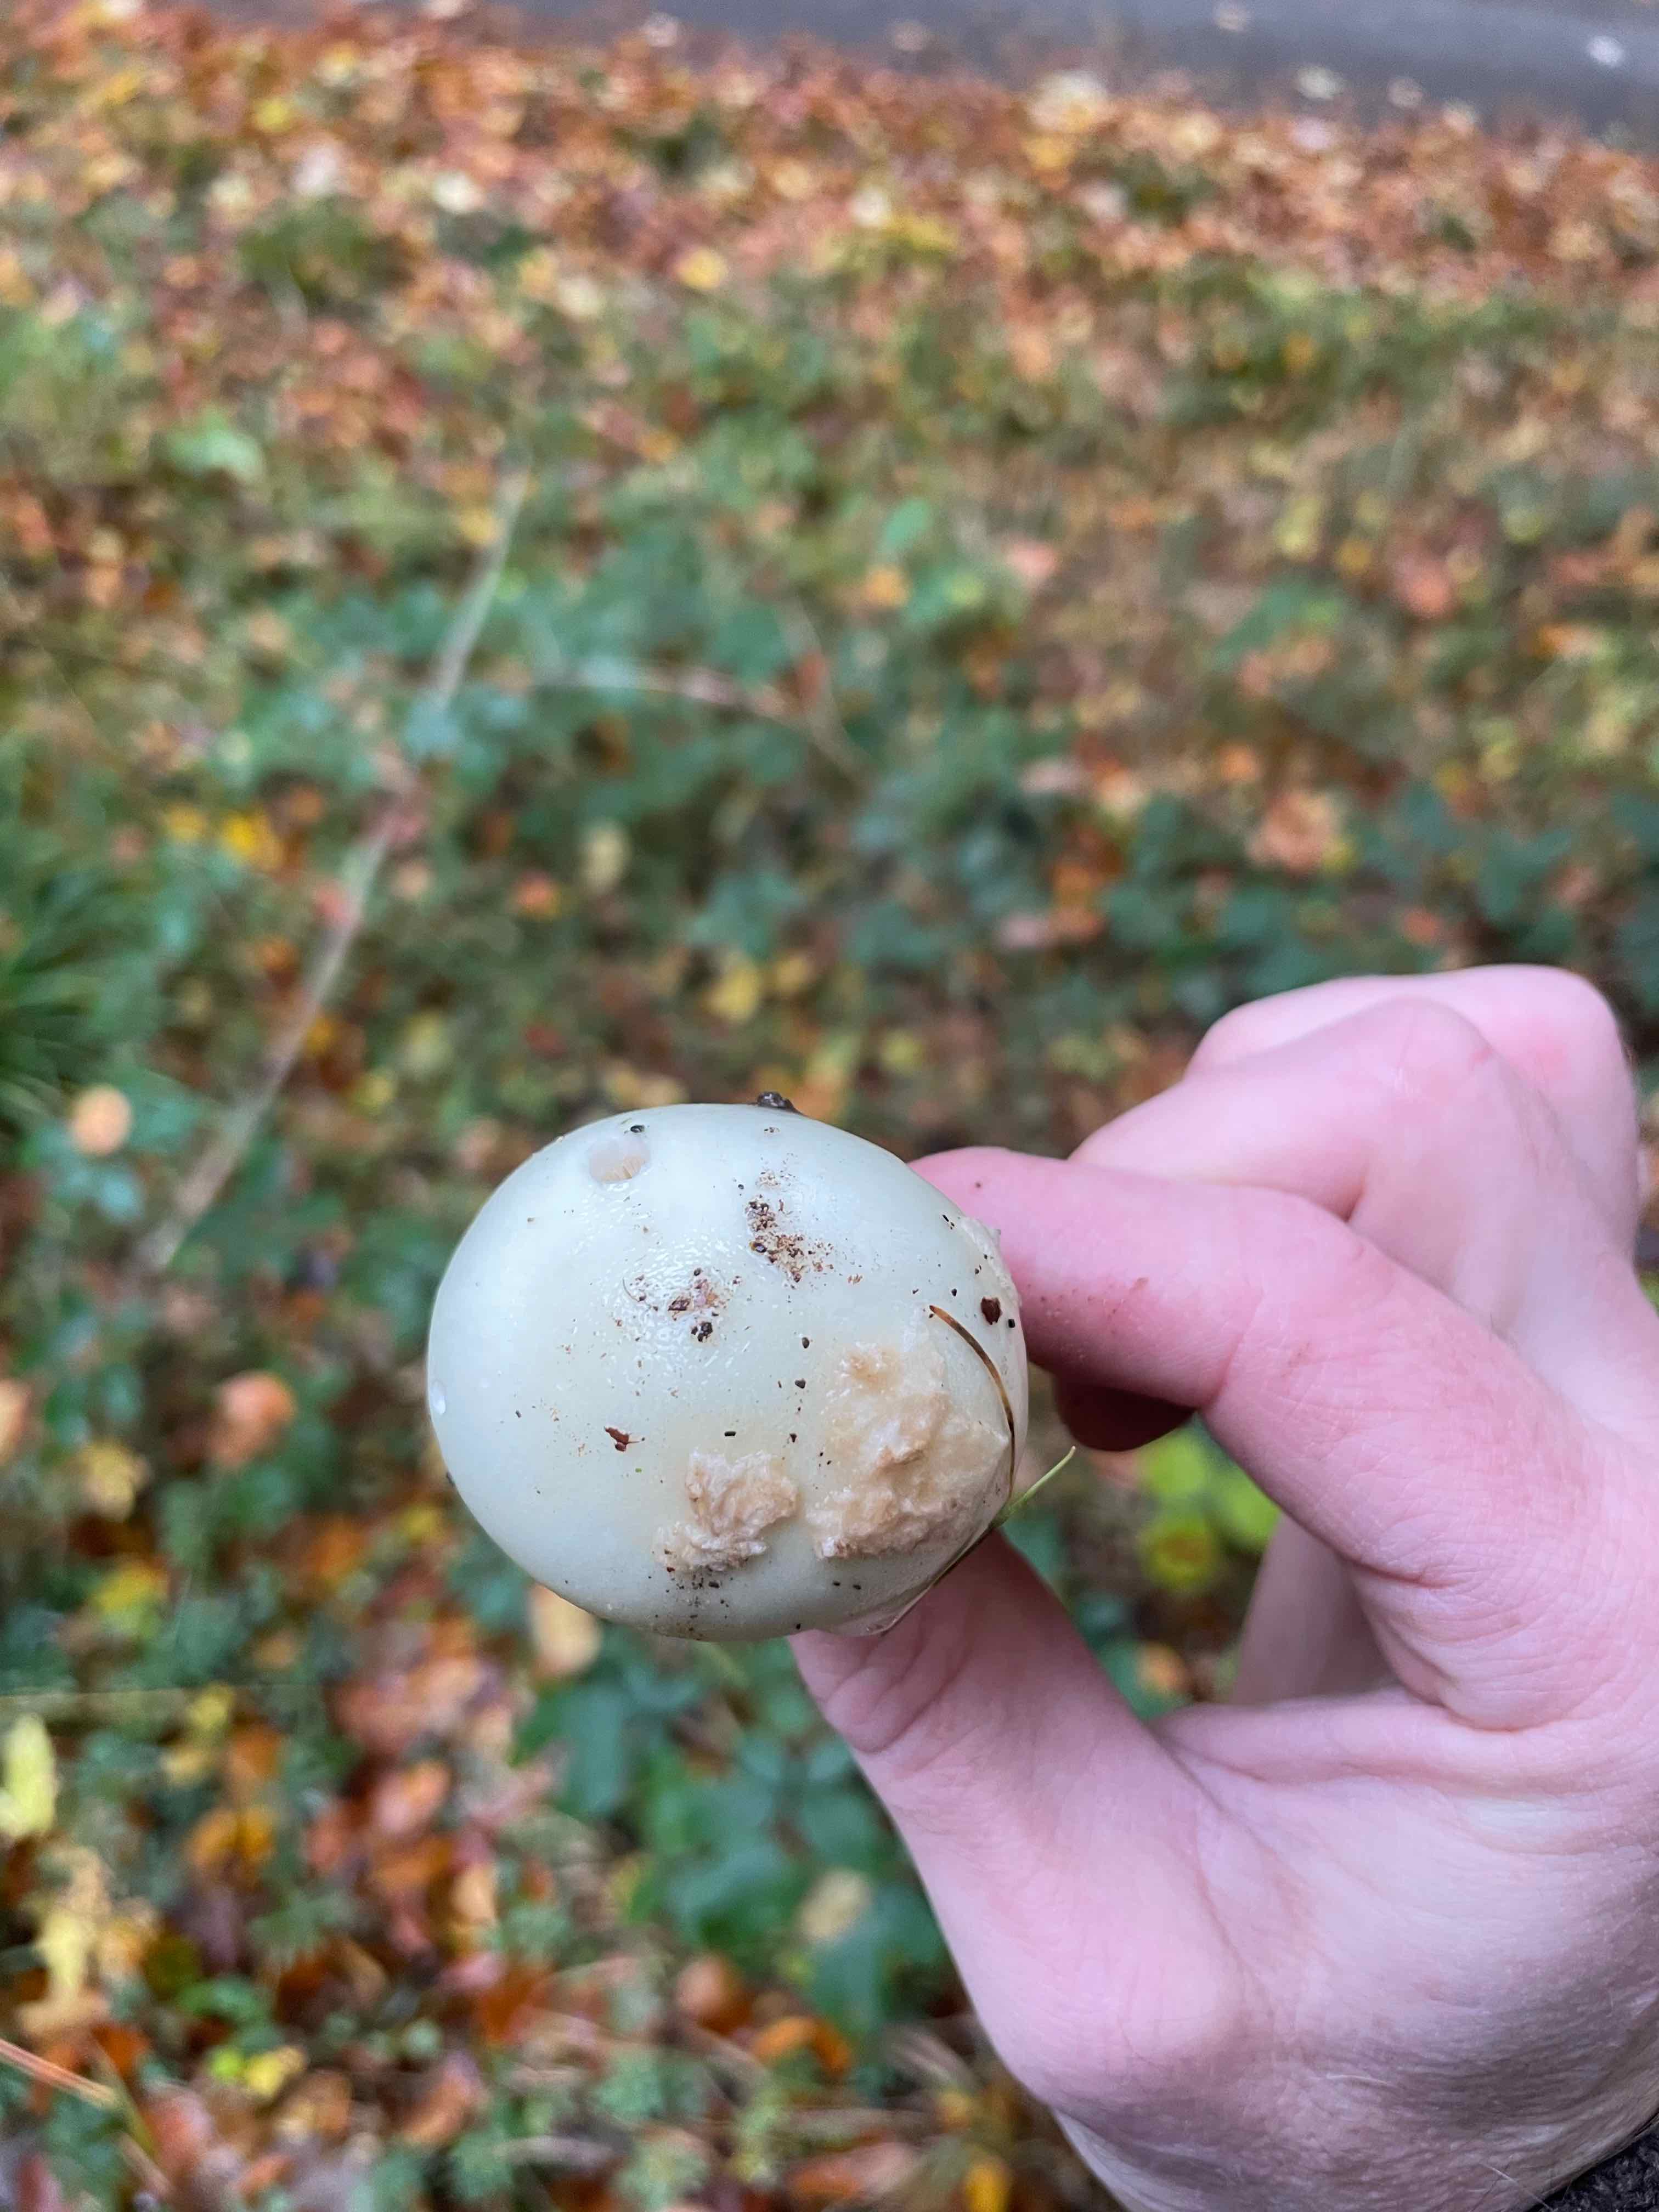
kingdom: Fungi
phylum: Basidiomycota
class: Agaricomycetes
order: Agaricales
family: Amanitaceae
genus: Amanita
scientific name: Amanita citrina
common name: kugleknoldet fluesvamp
